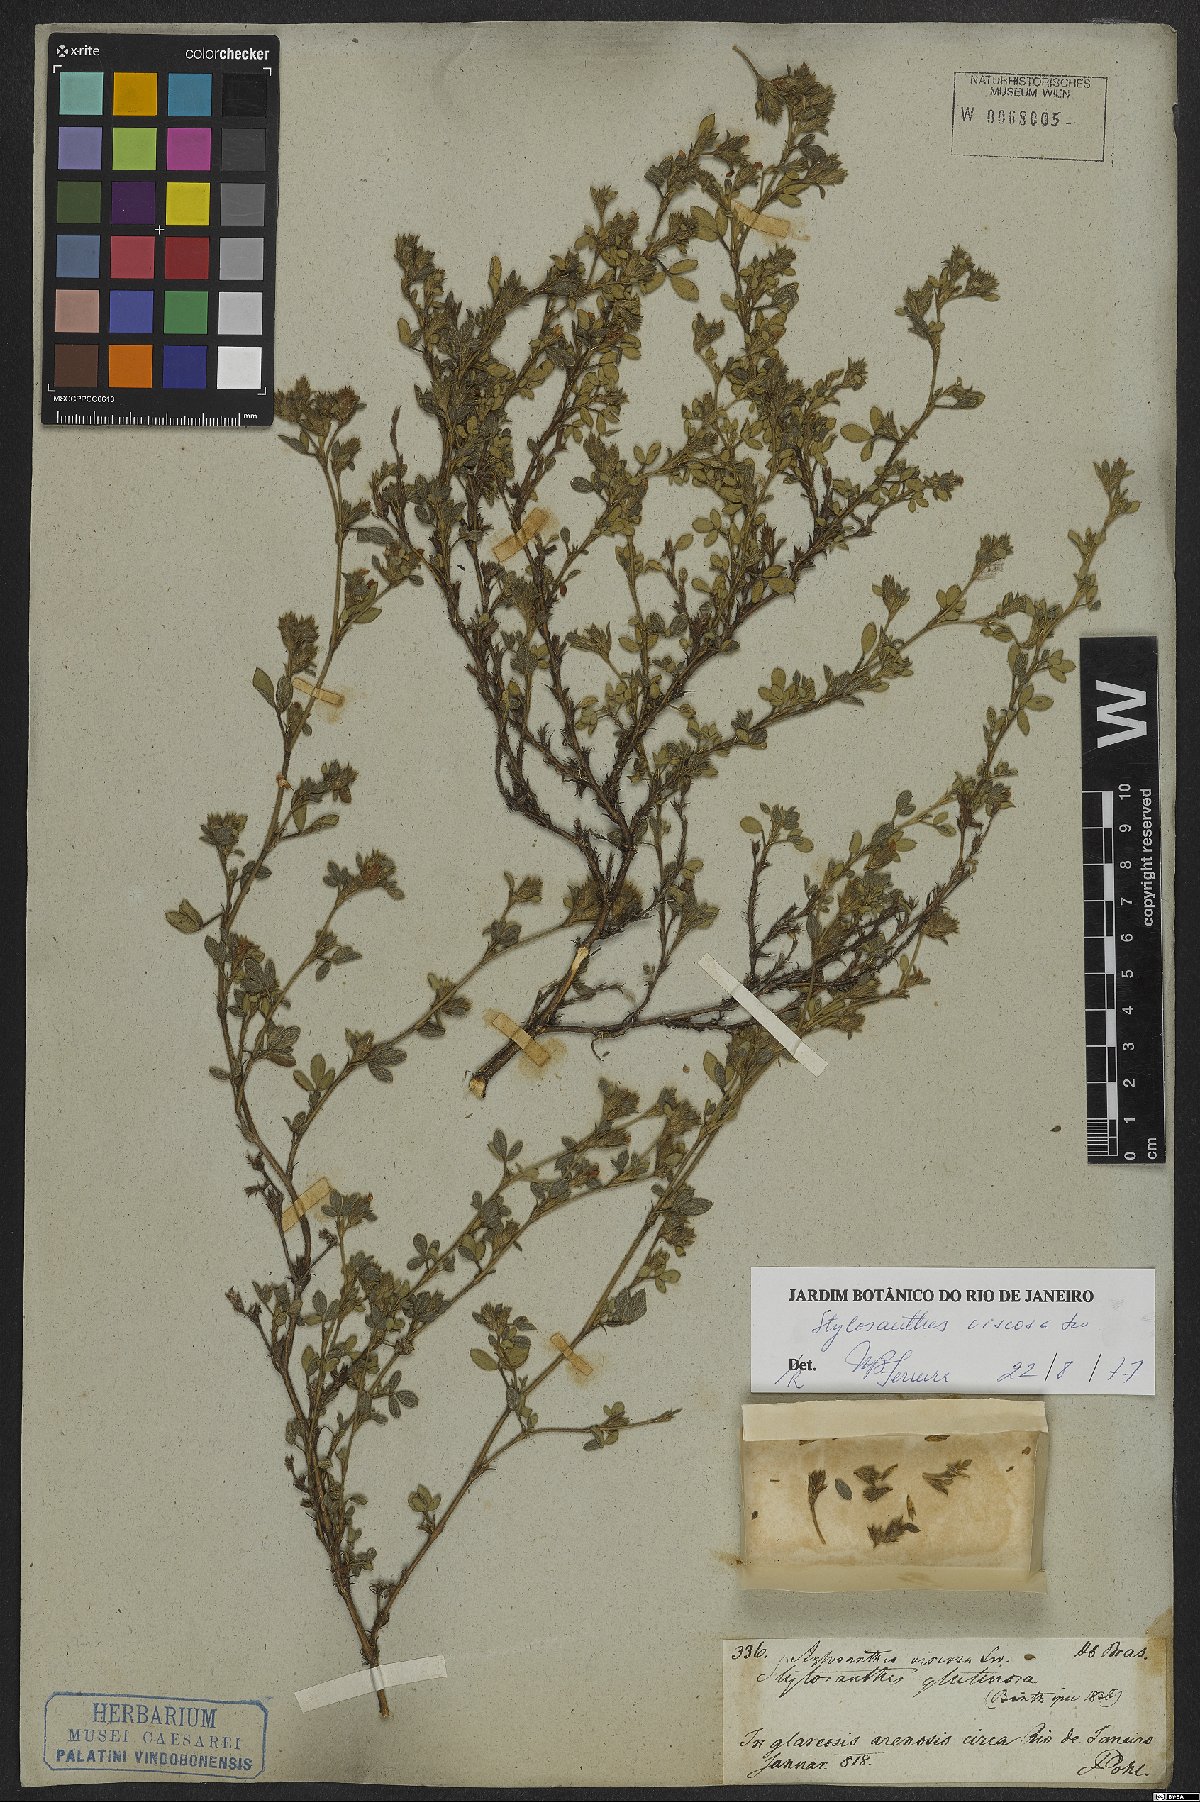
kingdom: Plantae
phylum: Tracheophyta
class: Magnoliopsida
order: Fabales
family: Fabaceae
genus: Stylosanthes
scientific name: Stylosanthes viscosa
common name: Viscid pencil-flower
